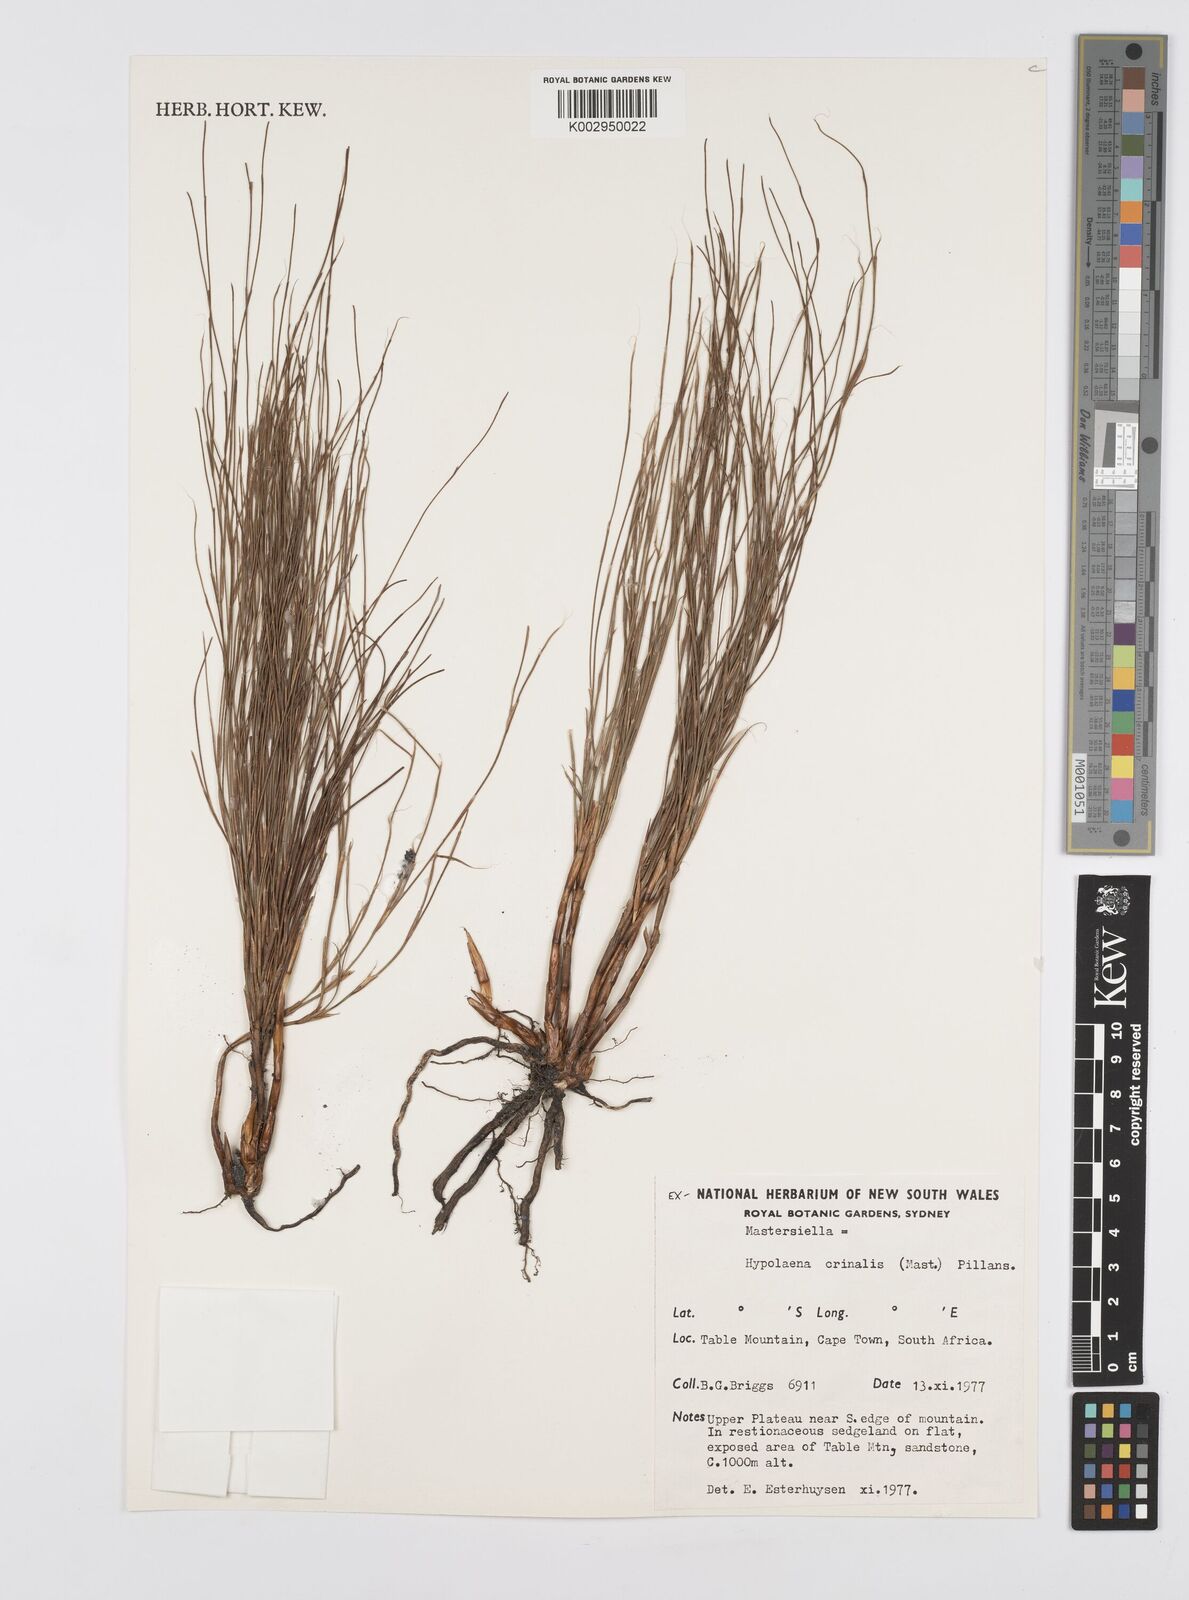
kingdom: Plantae
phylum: Tracheophyta
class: Liliopsida
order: Poales
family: Restionaceae
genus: Anthochortus
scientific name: Anthochortus
